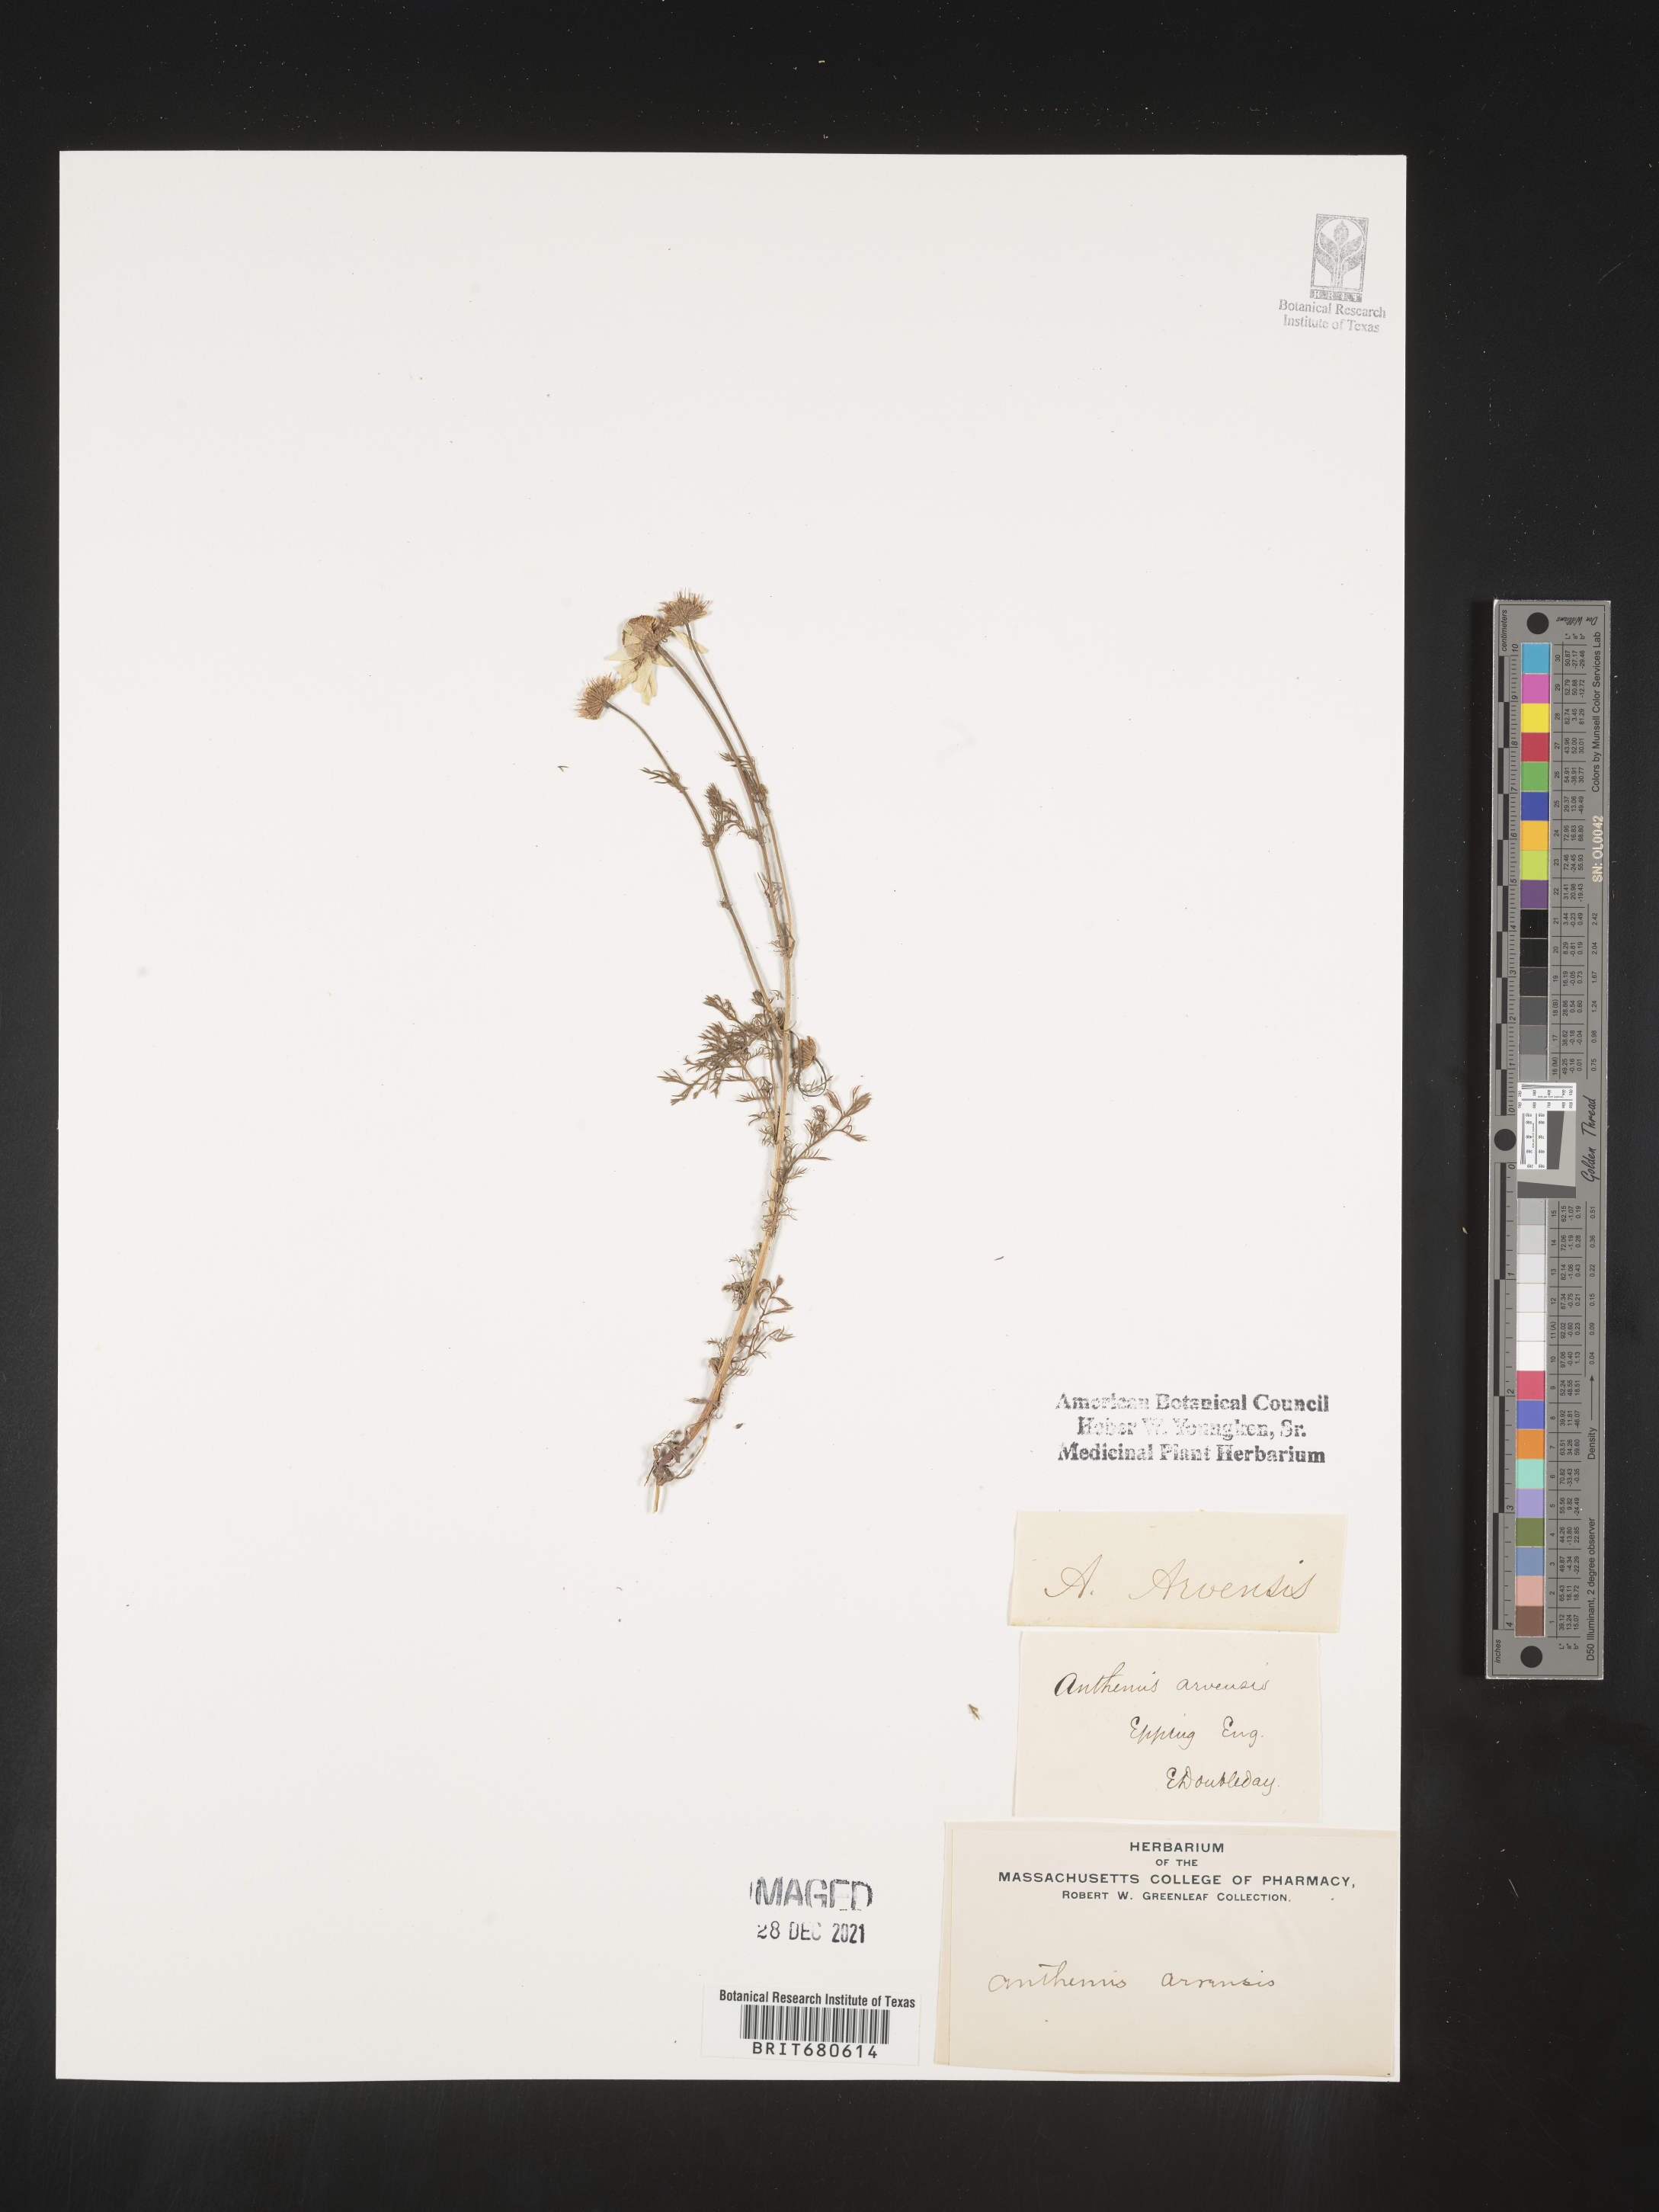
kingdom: Plantae
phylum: Tracheophyta
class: Magnoliopsida
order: Asterales
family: Asteraceae
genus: Anthemis
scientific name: Anthemis
